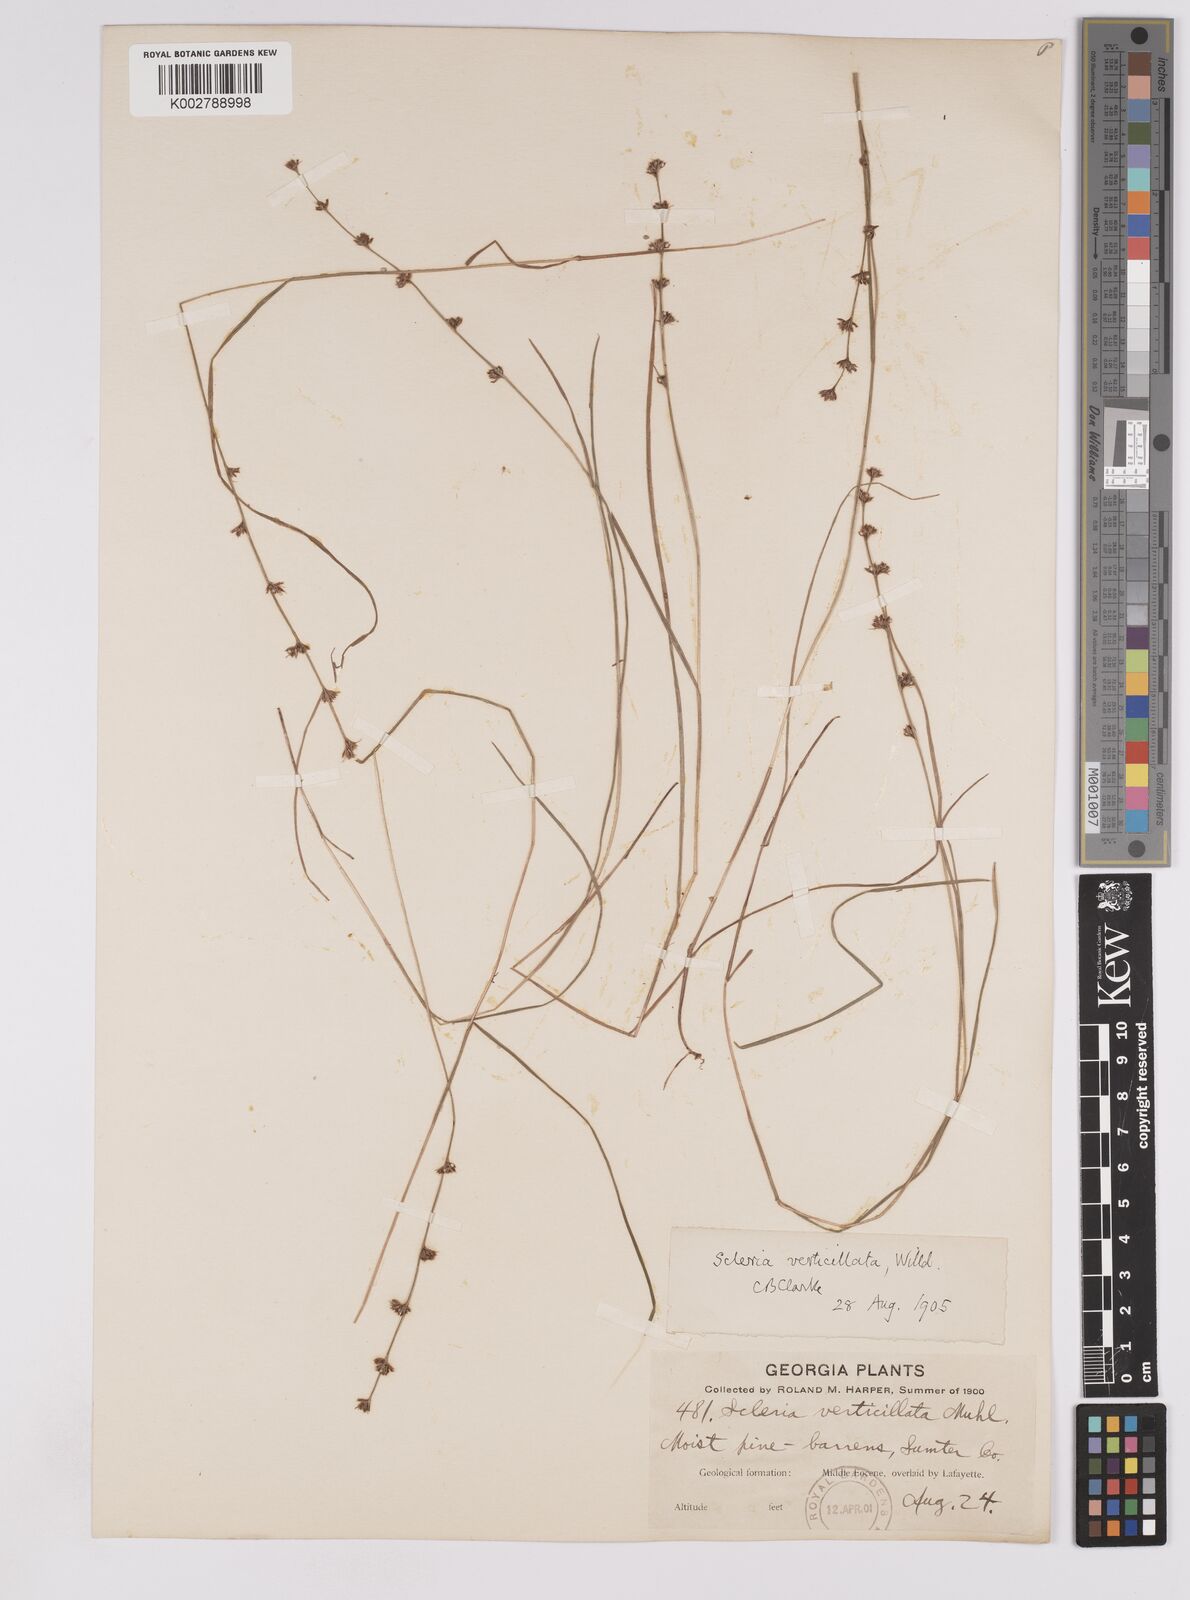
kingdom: Plantae
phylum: Tracheophyta
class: Liliopsida
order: Poales
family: Cyperaceae
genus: Scleria
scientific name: Scleria verticillata
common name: Low nutrush
